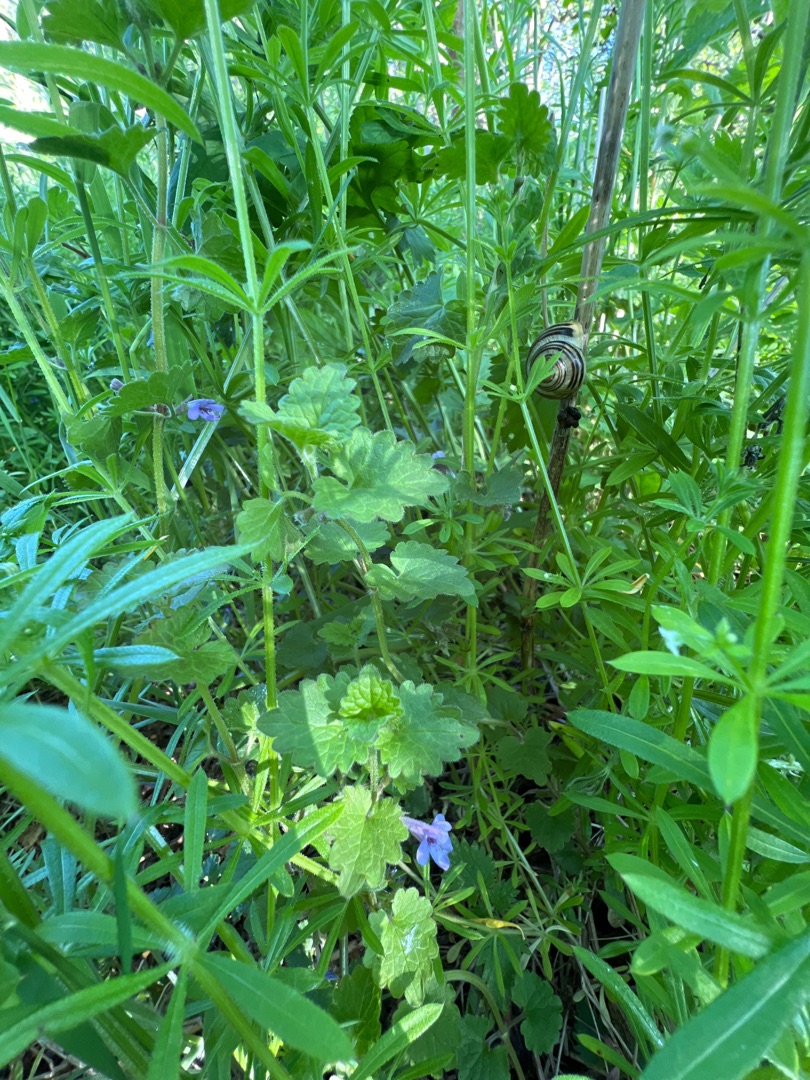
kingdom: Plantae
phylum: Tracheophyta
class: Magnoliopsida
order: Lamiales
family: Lamiaceae
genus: Glechoma
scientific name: Glechoma hederacea
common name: Korsknap
